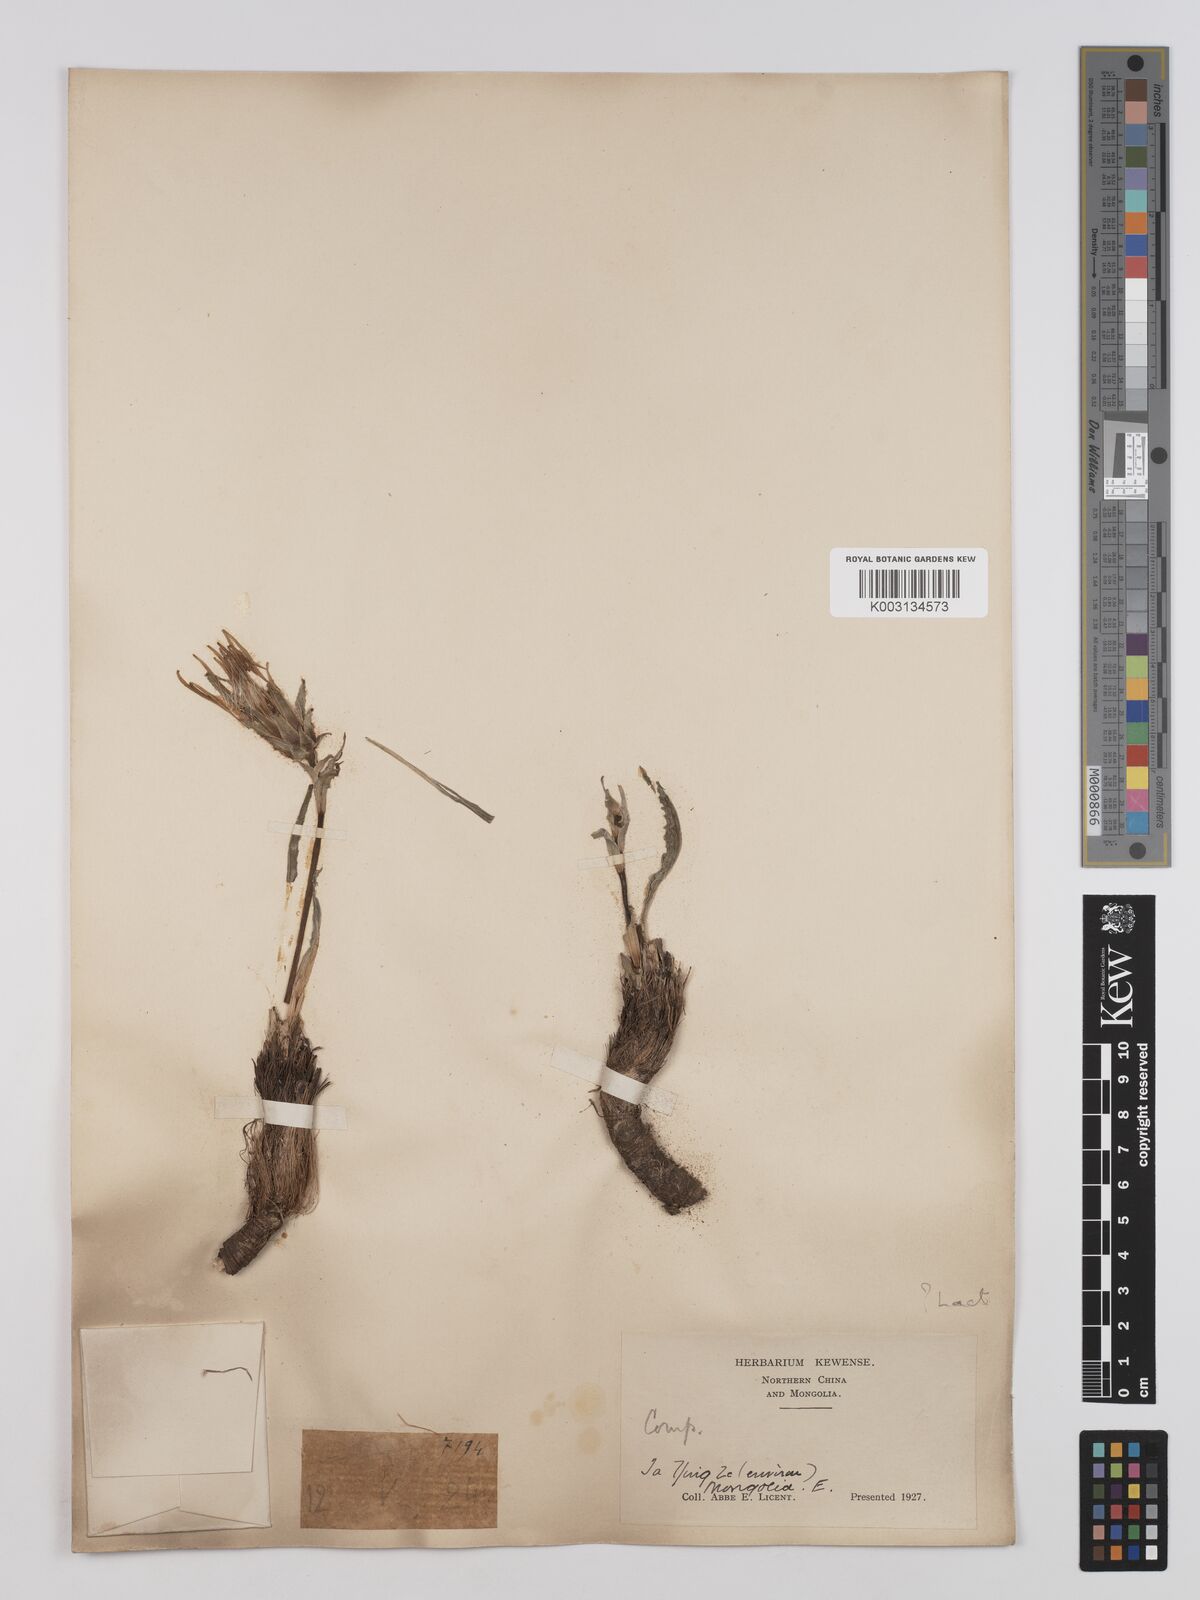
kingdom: Plantae
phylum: Tracheophyta
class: Magnoliopsida
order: Asterales
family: Asteraceae
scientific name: Asteraceae
